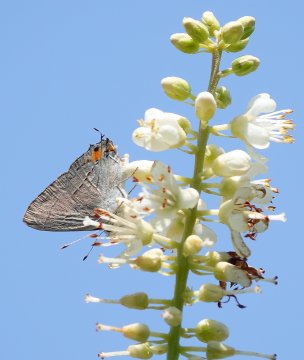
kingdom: Animalia
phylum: Arthropoda
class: Insecta
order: Lepidoptera
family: Lycaenidae
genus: Strymon
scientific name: Strymon melinus
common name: Gray Hairstreak
